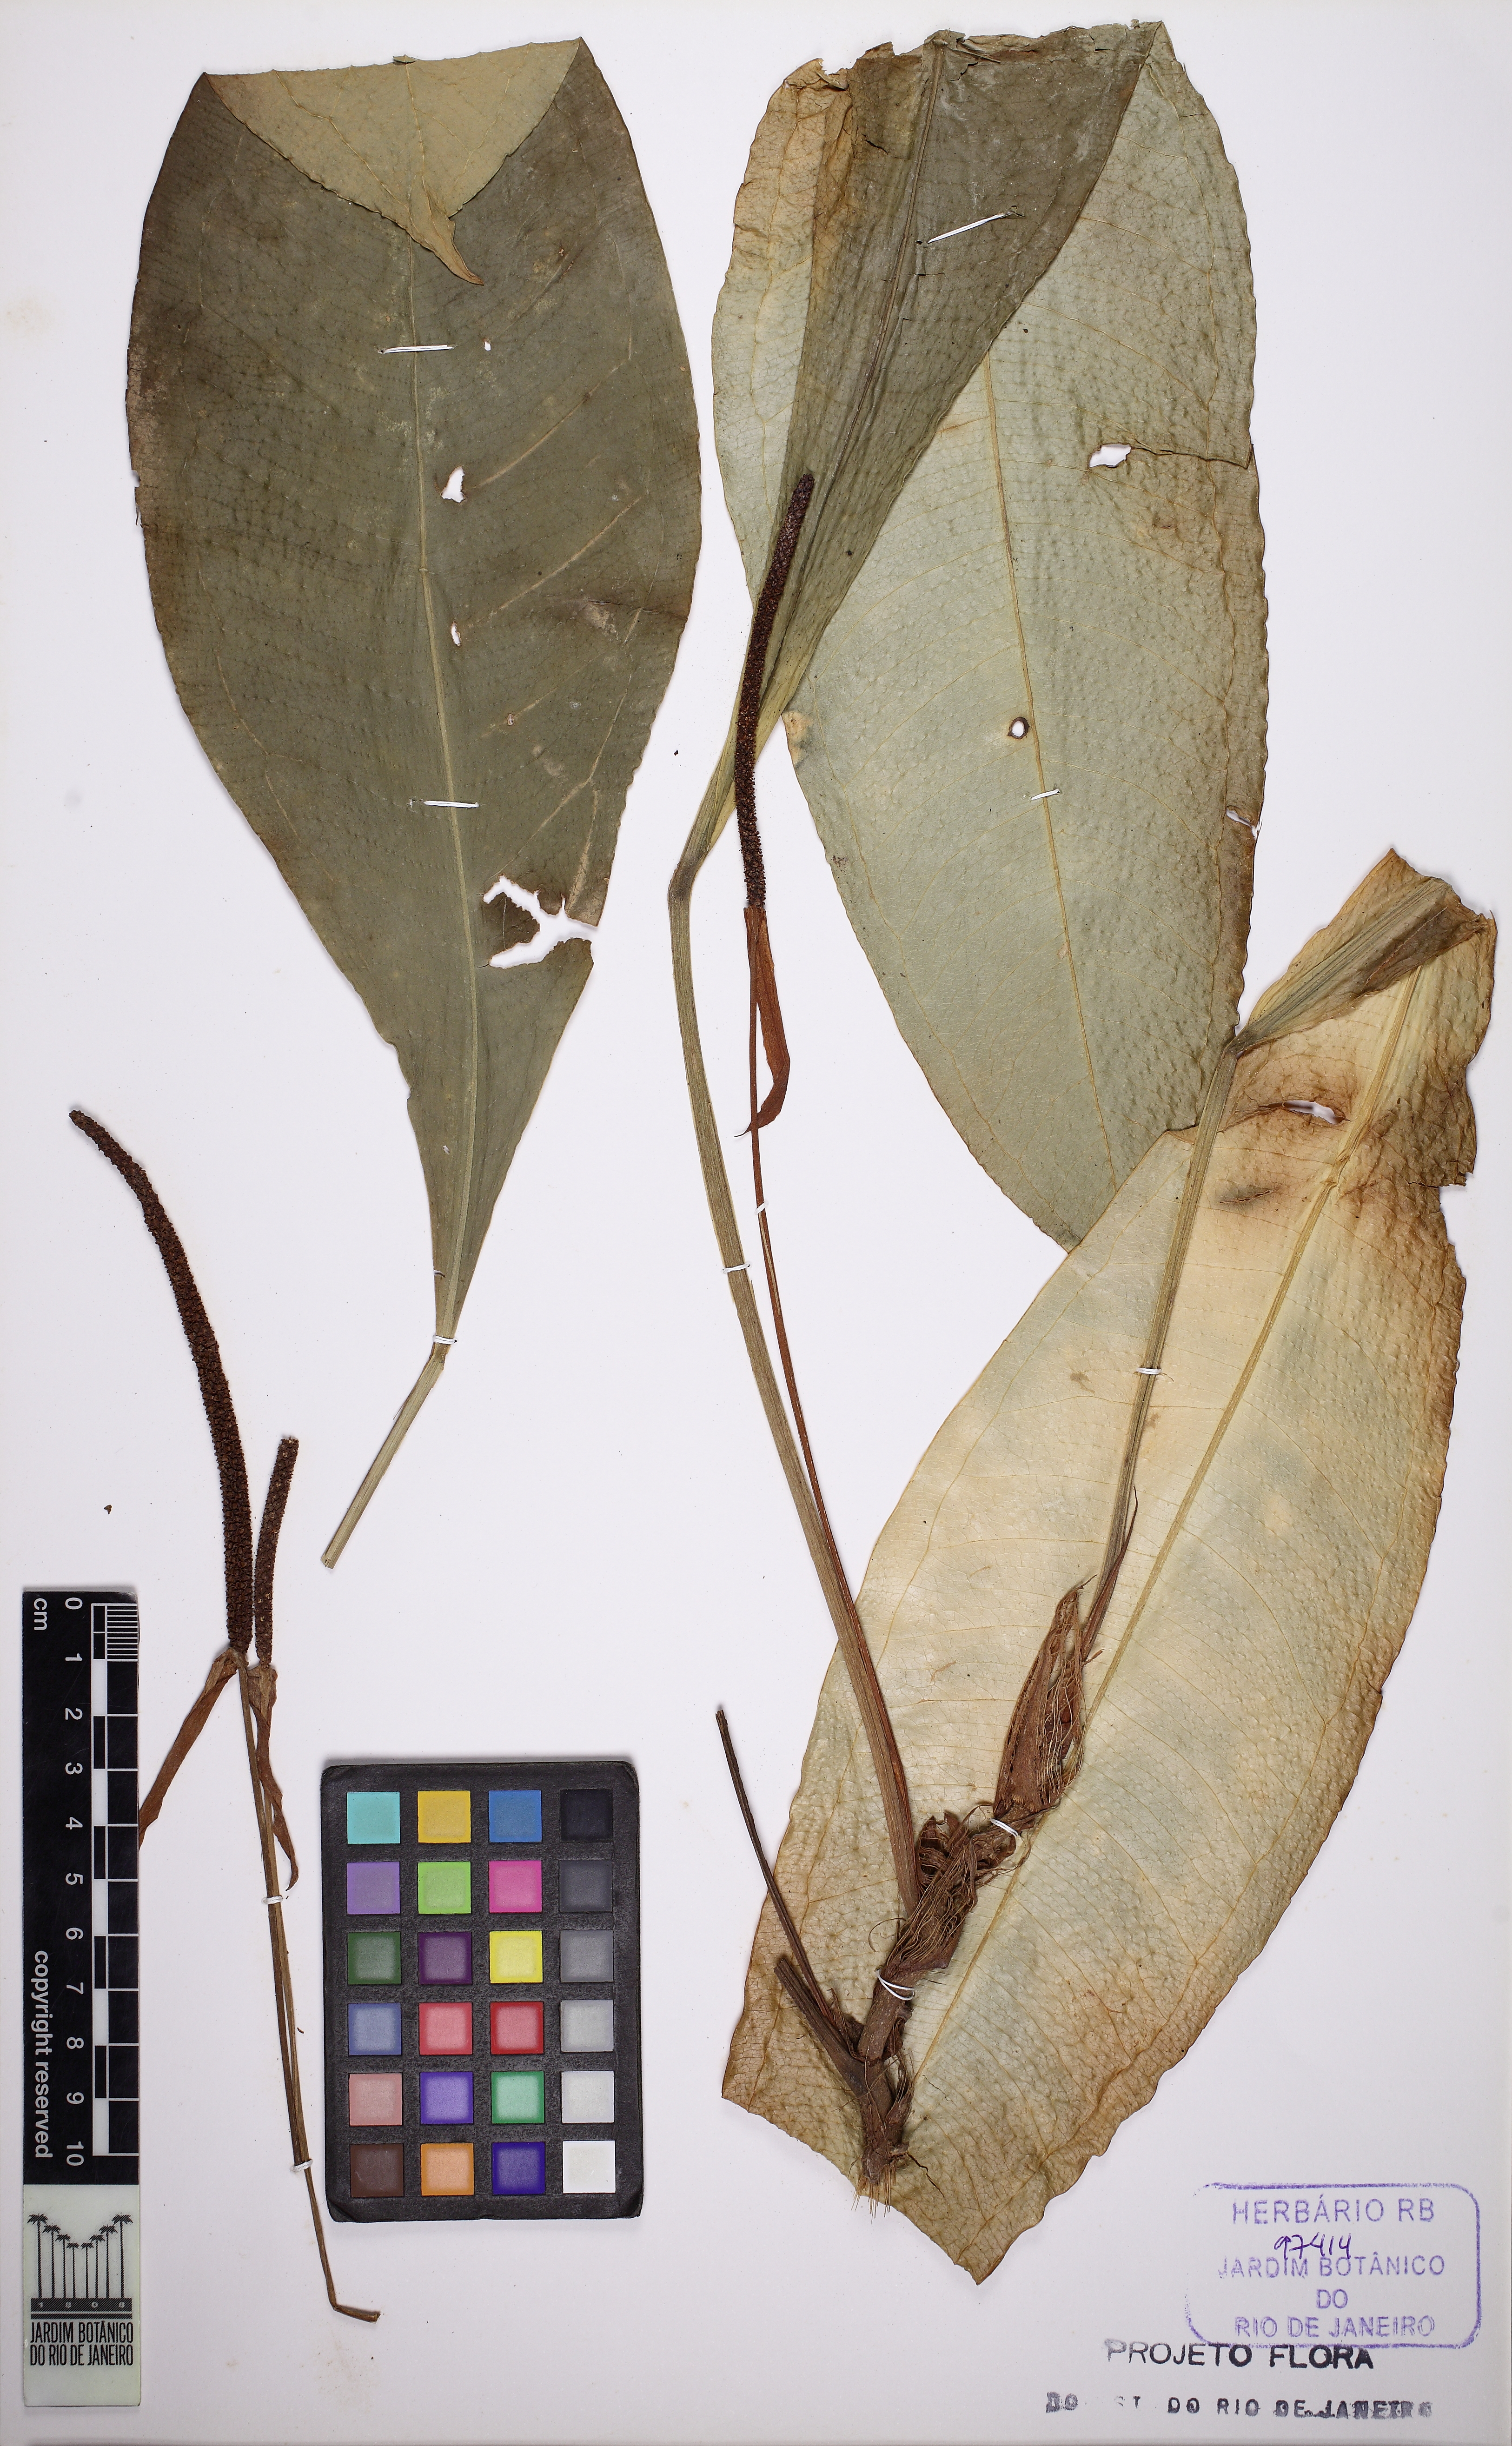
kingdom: Plantae
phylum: Tracheophyta
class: Liliopsida
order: Alismatales
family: Araceae
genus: Anthurium
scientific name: Anthurium intermedium
